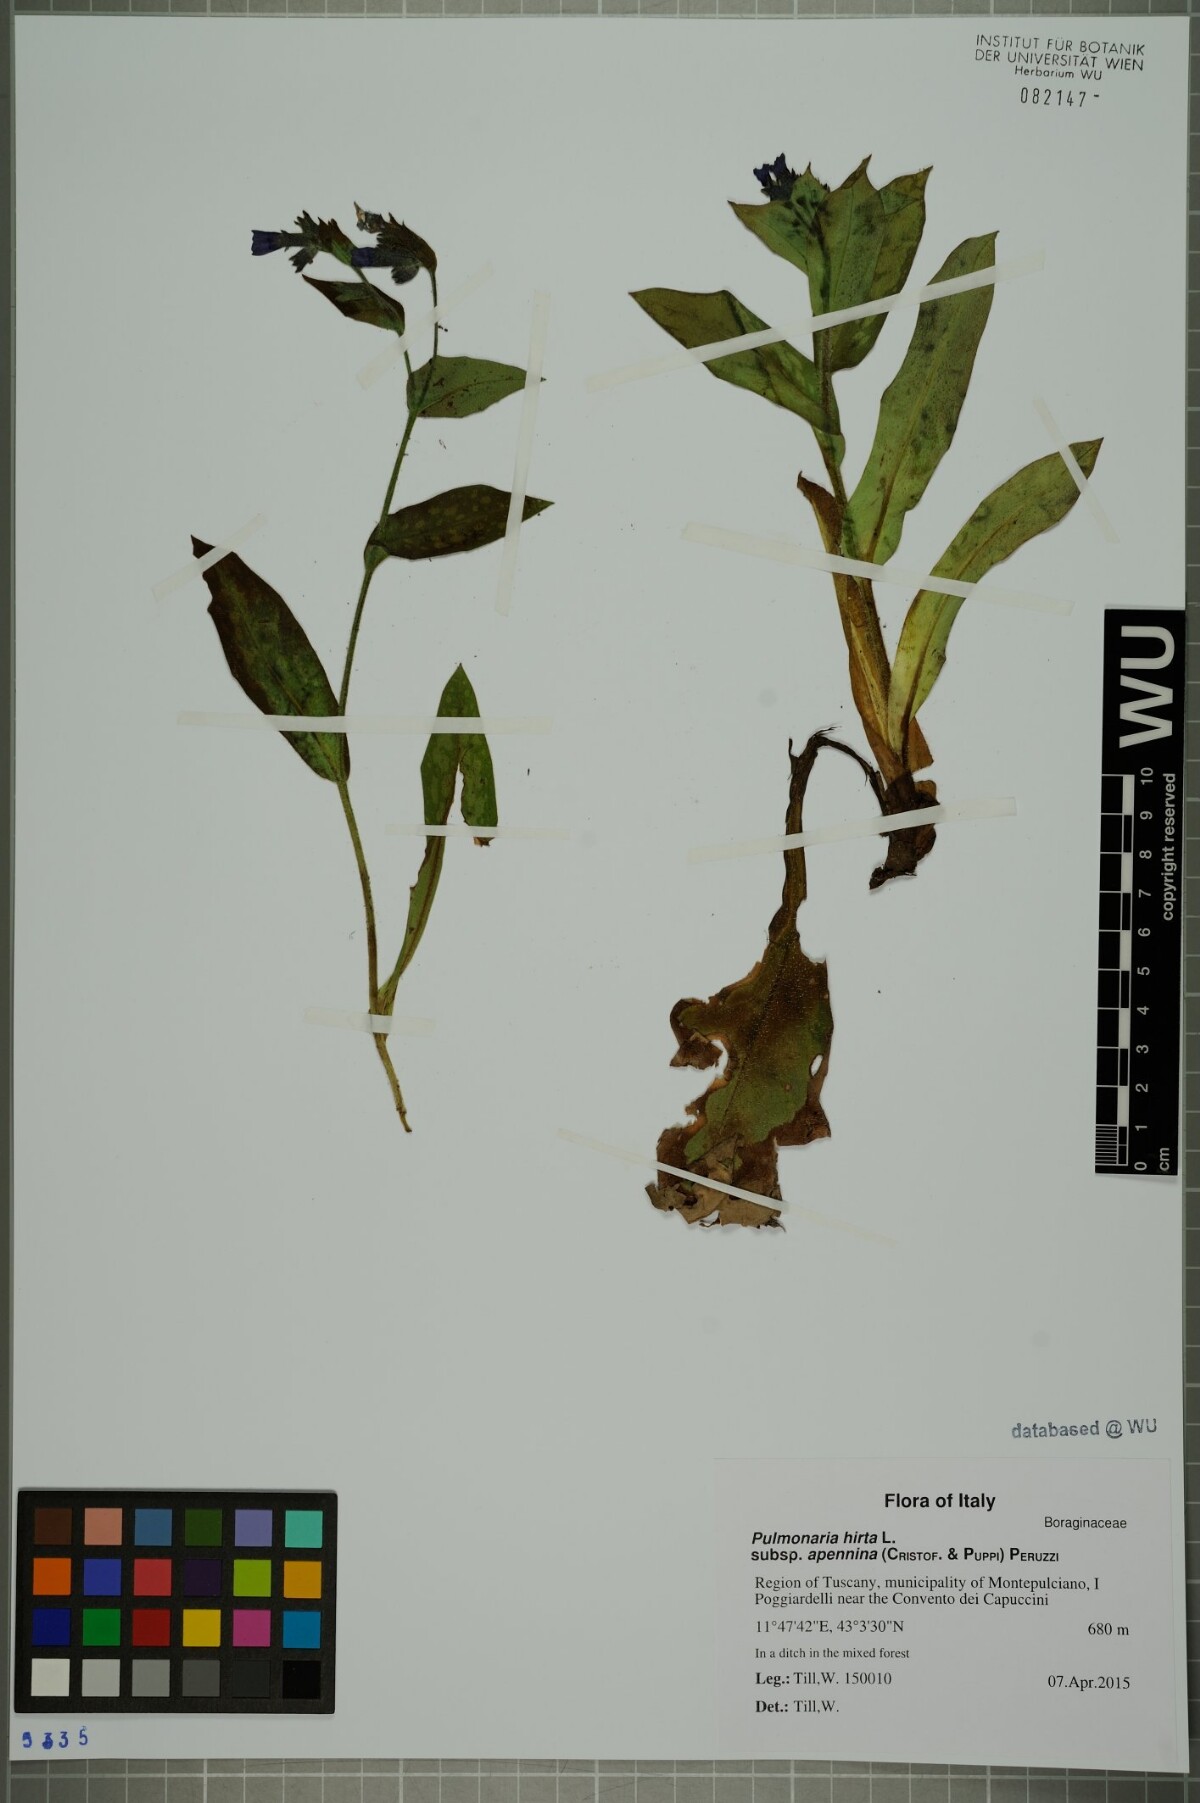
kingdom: Plantae
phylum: Tracheophyta
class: Magnoliopsida
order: Boraginales
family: Boraginaceae
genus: Pulmonaria
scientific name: Pulmonaria hirta
